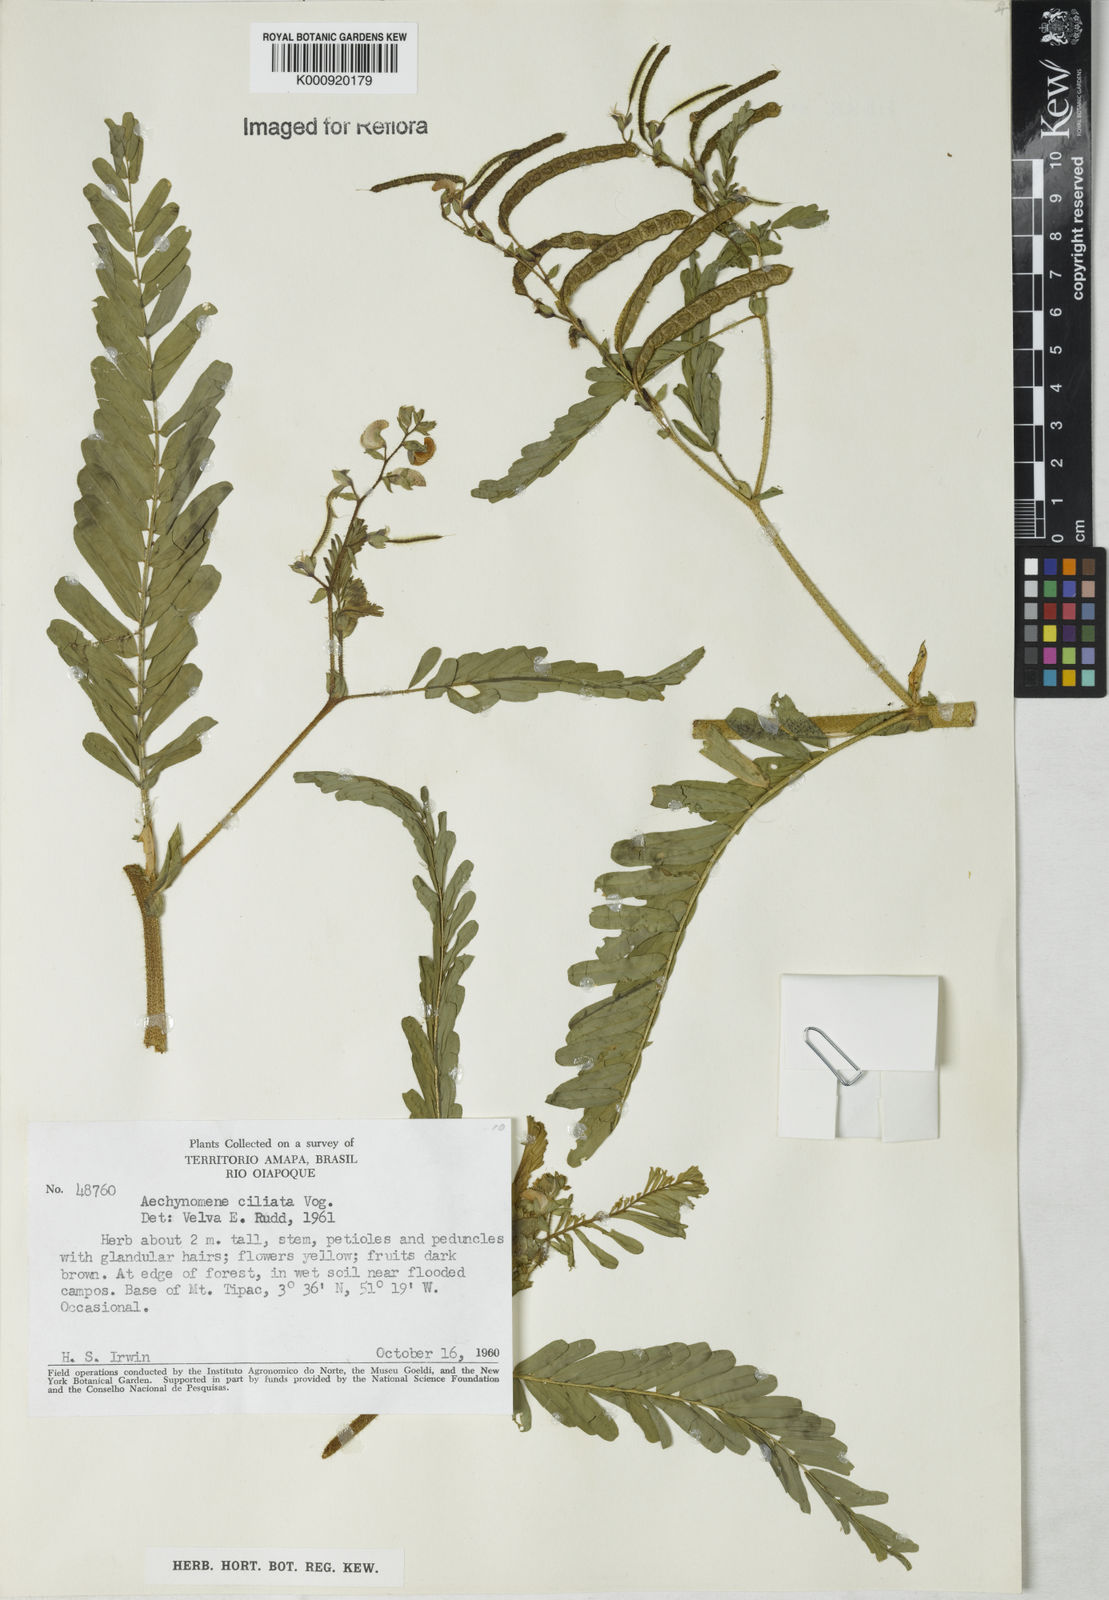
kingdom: Plantae
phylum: Tracheophyta
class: Magnoliopsida
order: Fabales
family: Fabaceae
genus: Aeschynomene
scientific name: Aeschynomene ciliata
